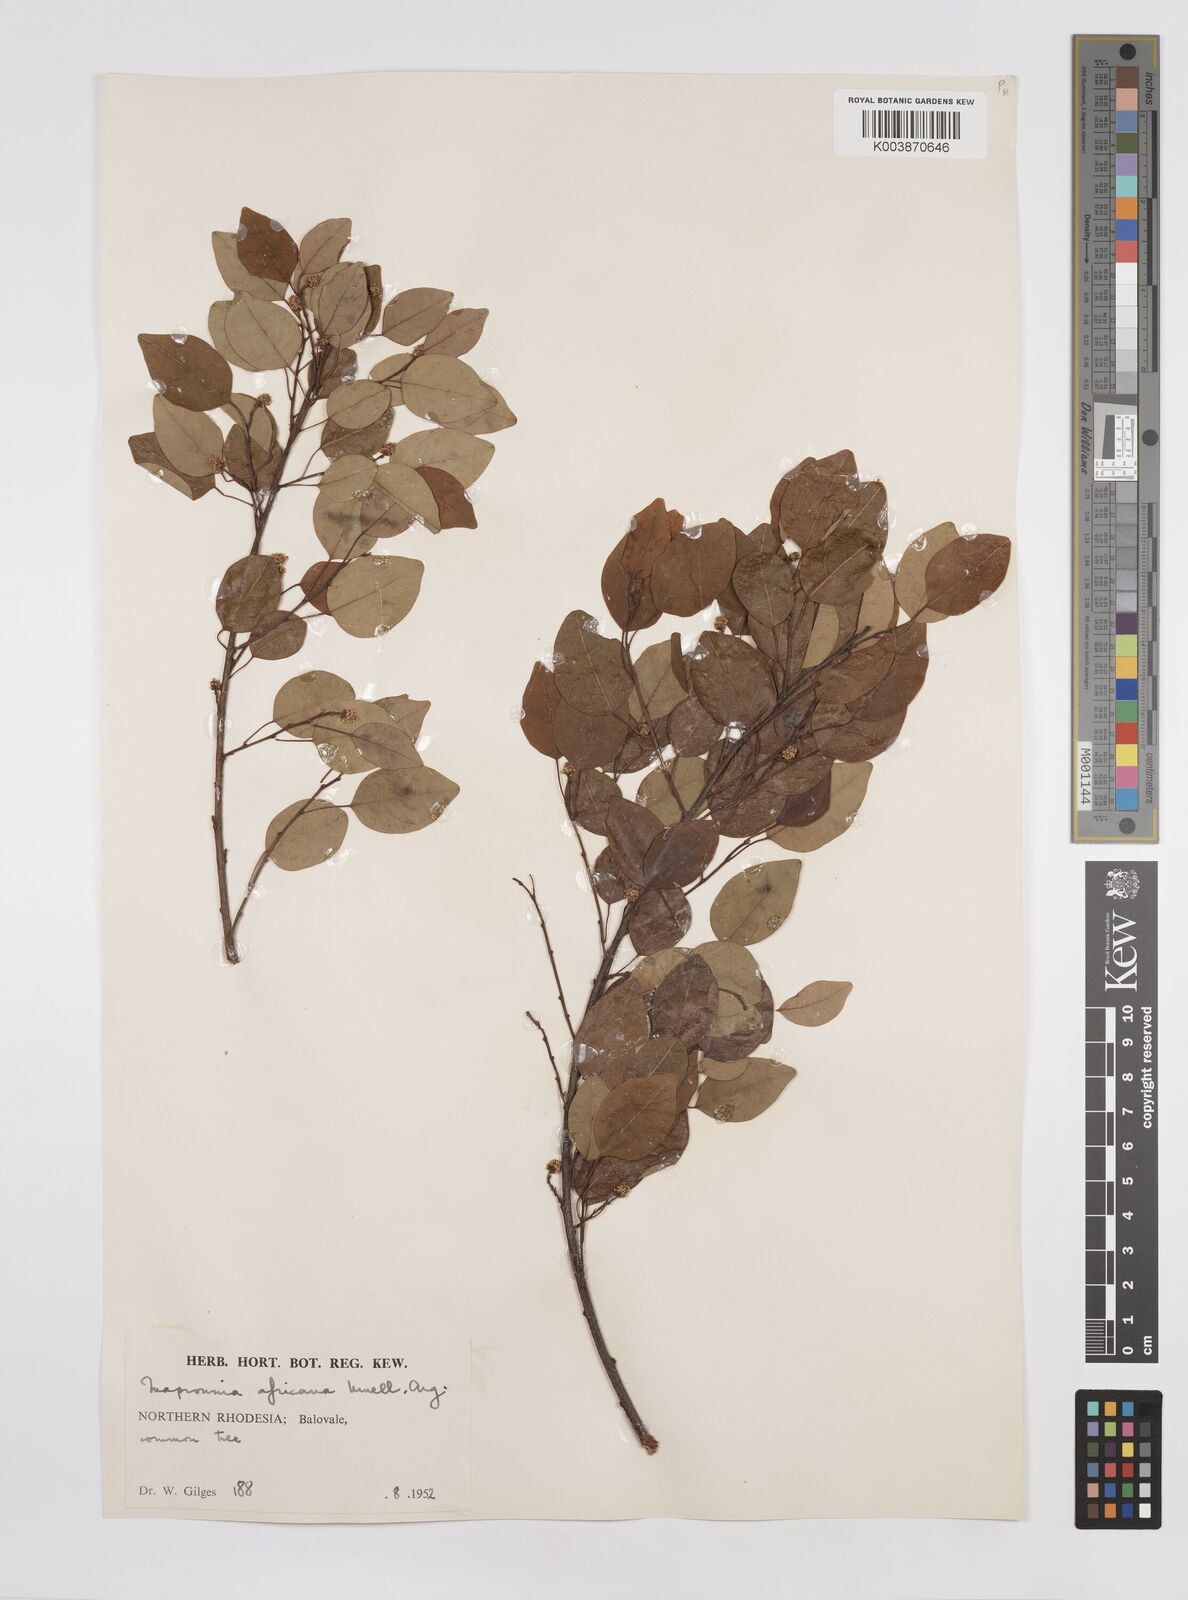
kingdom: Plantae
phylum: Tracheophyta
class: Magnoliopsida
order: Malpighiales
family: Euphorbiaceae
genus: Maprounea
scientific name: Maprounea africana
